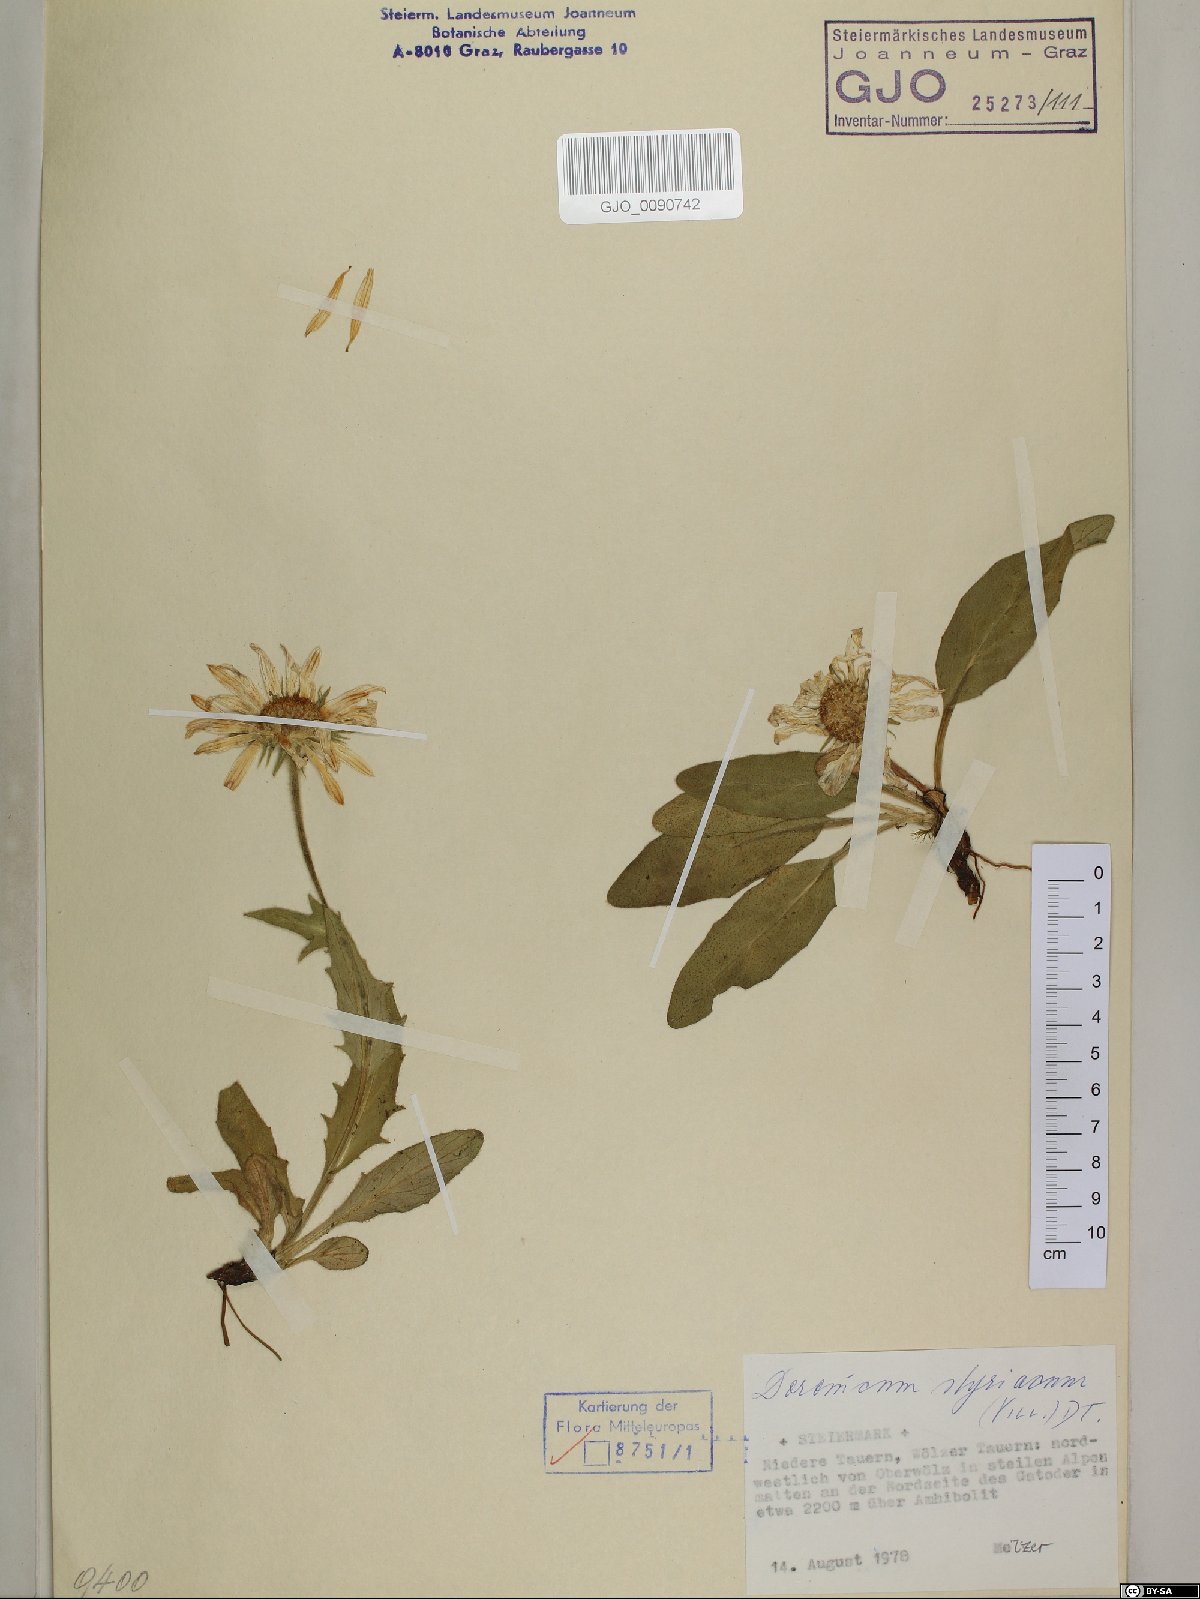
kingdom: Plantae
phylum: Tracheophyta
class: Magnoliopsida
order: Asterales
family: Asteraceae
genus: Doronicum
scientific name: Doronicum clusii
